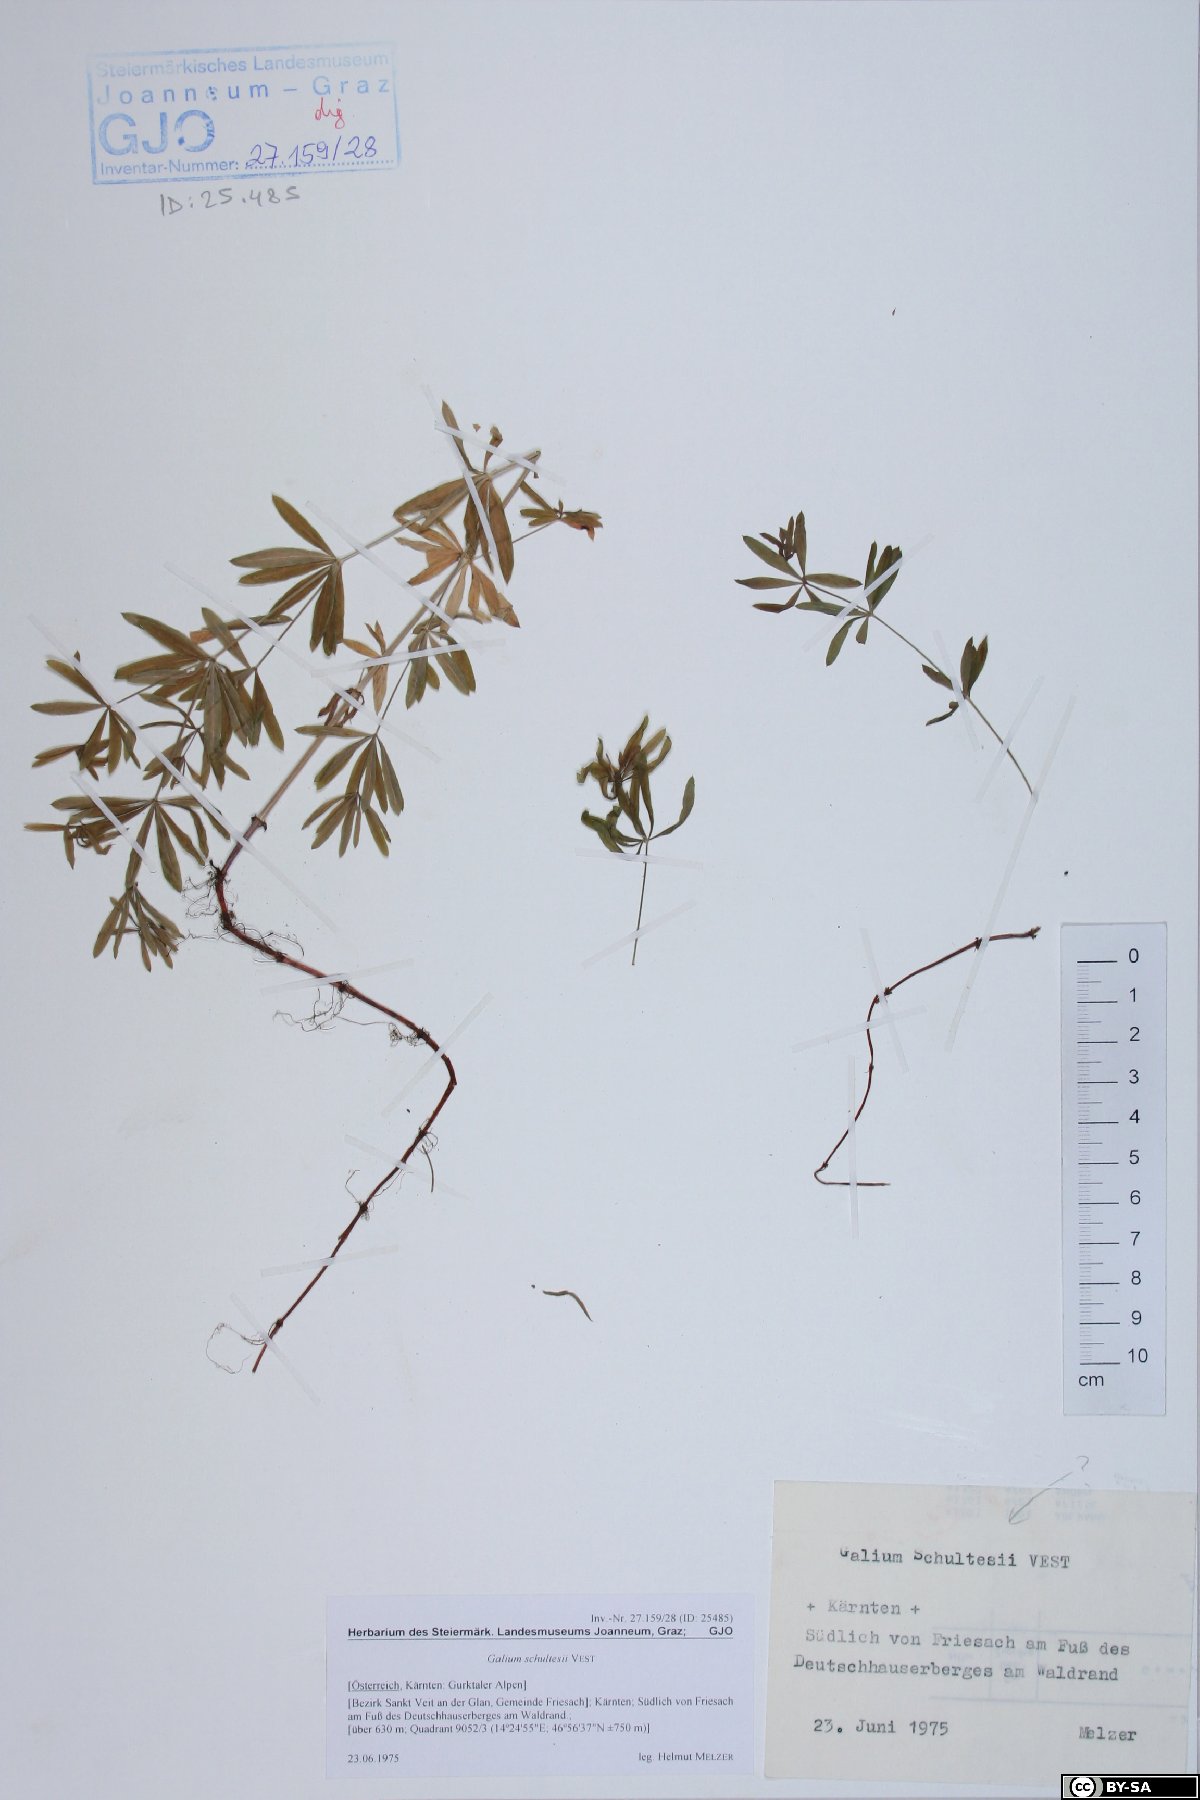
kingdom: Plantae
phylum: Tracheophyta
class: Magnoliopsida
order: Gentianales
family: Rubiaceae
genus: Galium
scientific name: Galium intermedium
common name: Bedstraw
